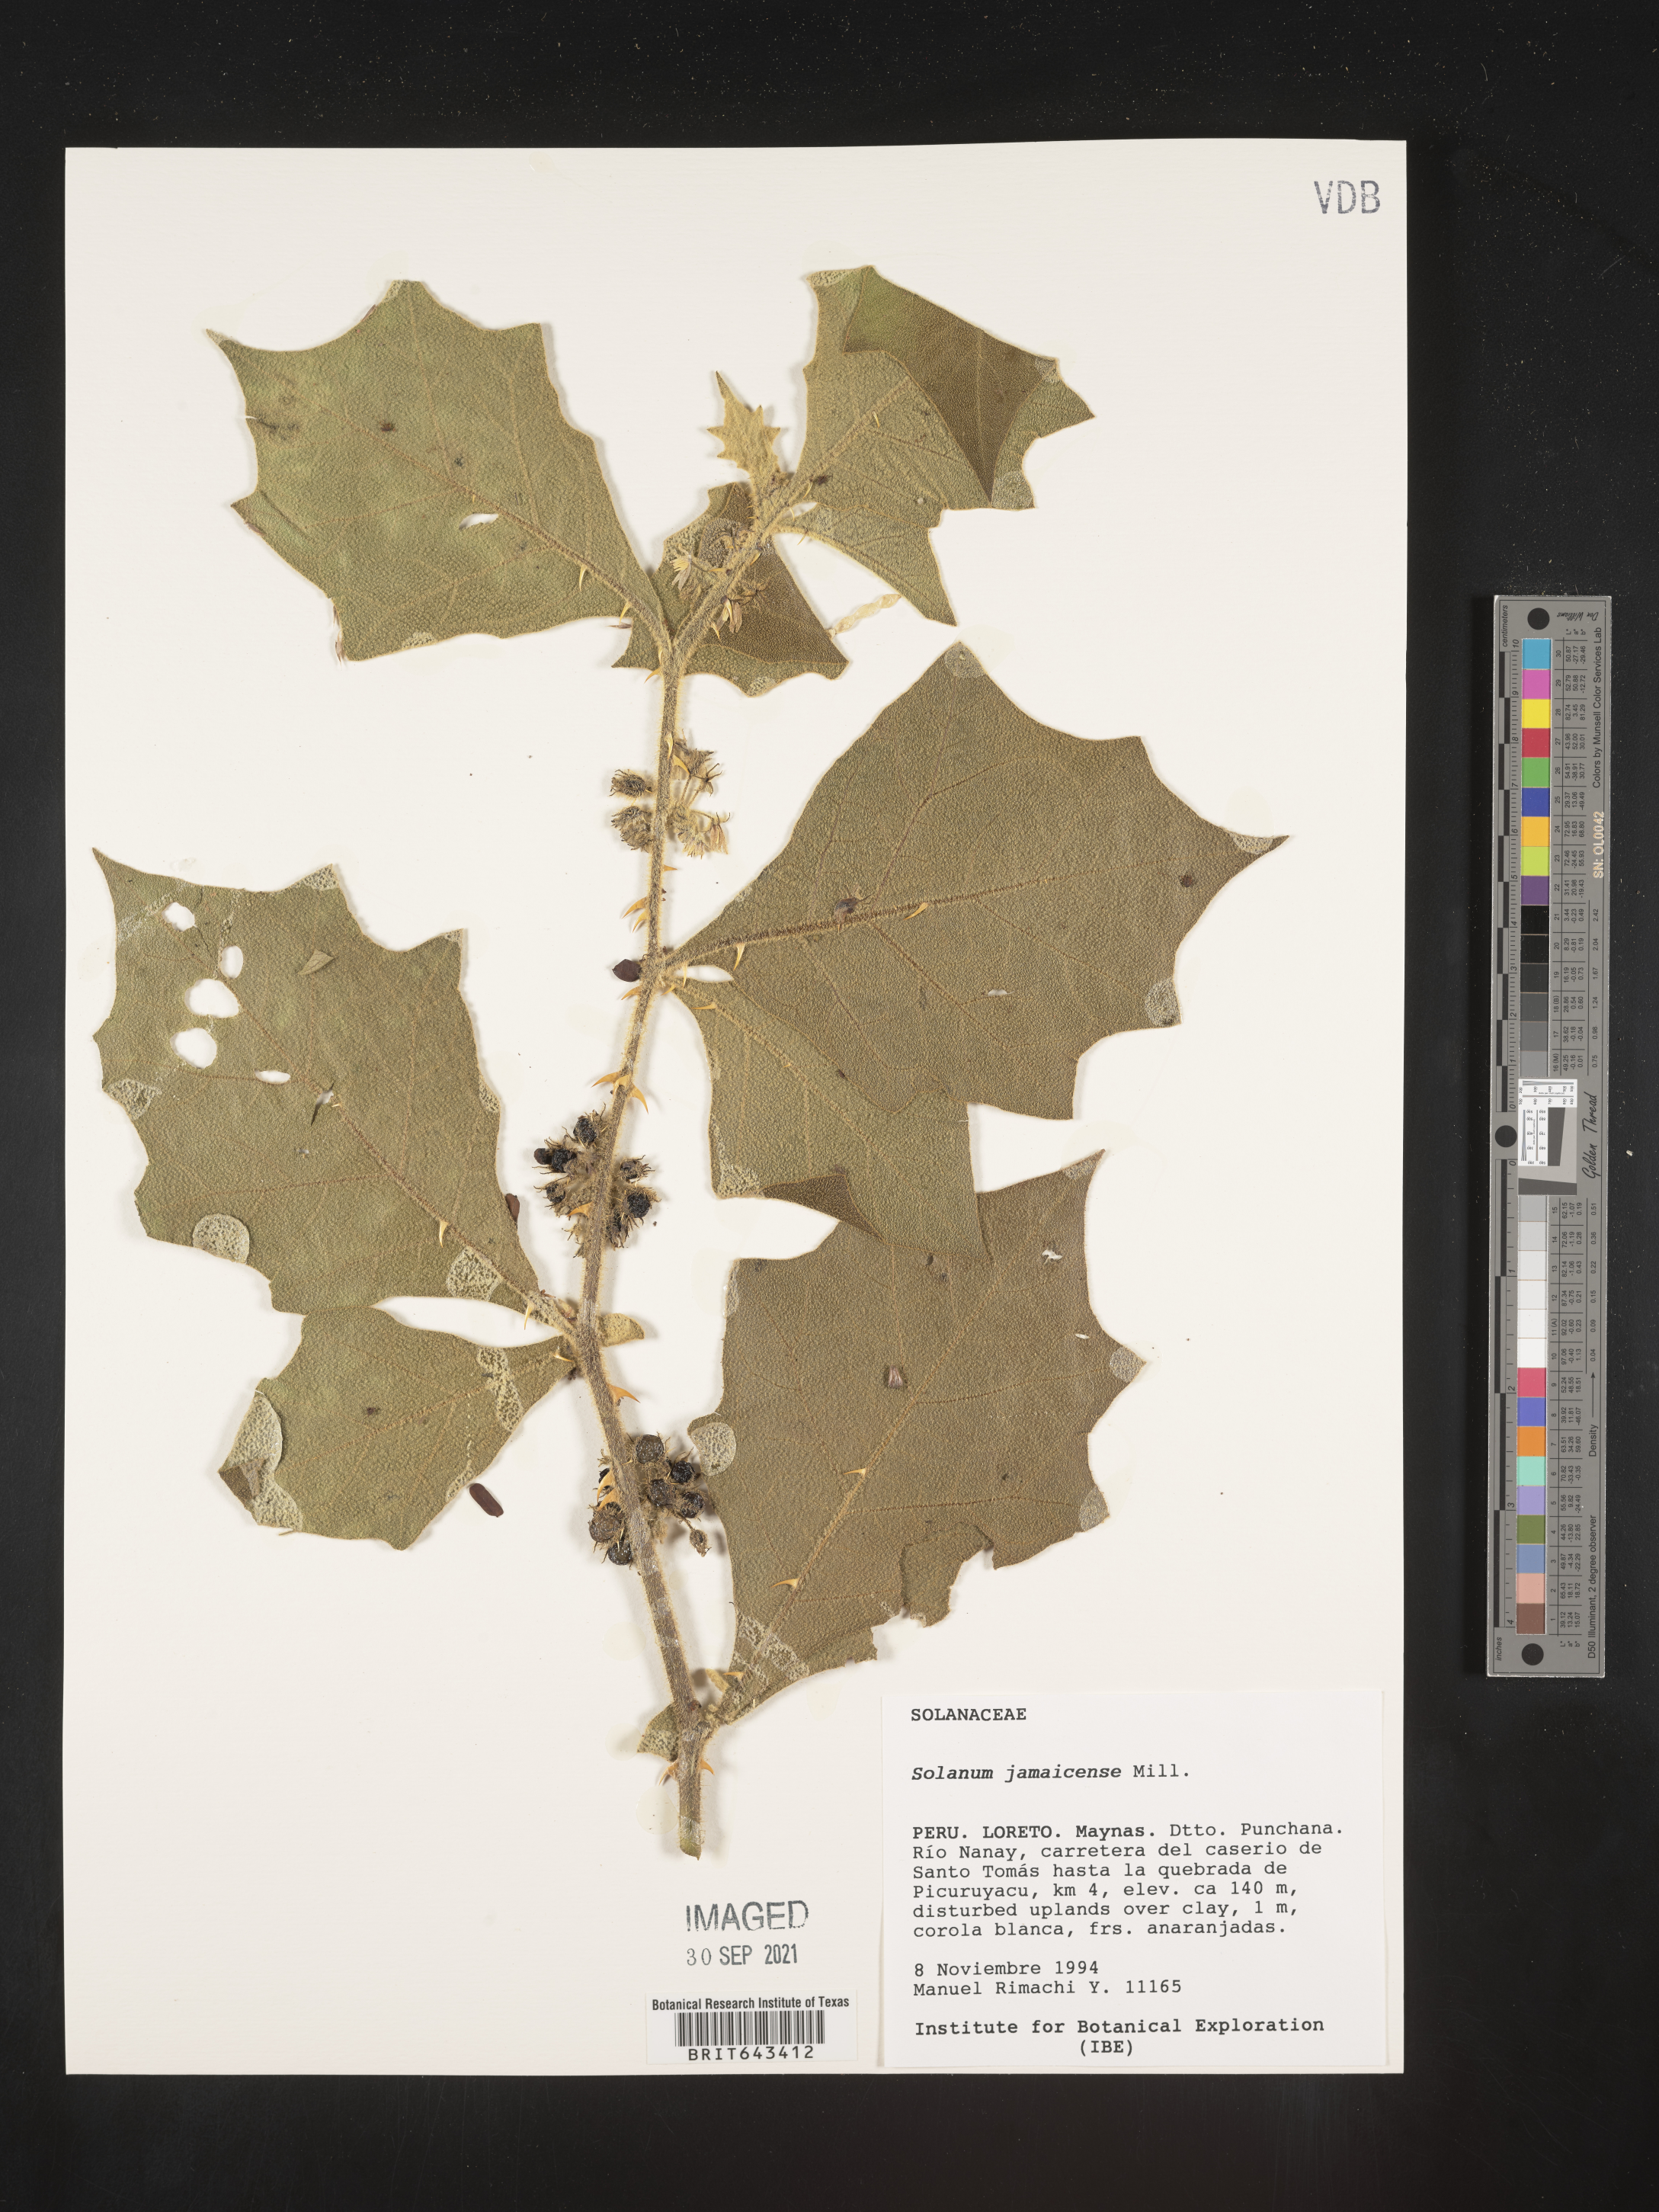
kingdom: Plantae
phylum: Tracheophyta
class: Magnoliopsida
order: Solanales
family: Solanaceae
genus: Solanum
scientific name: Solanum
